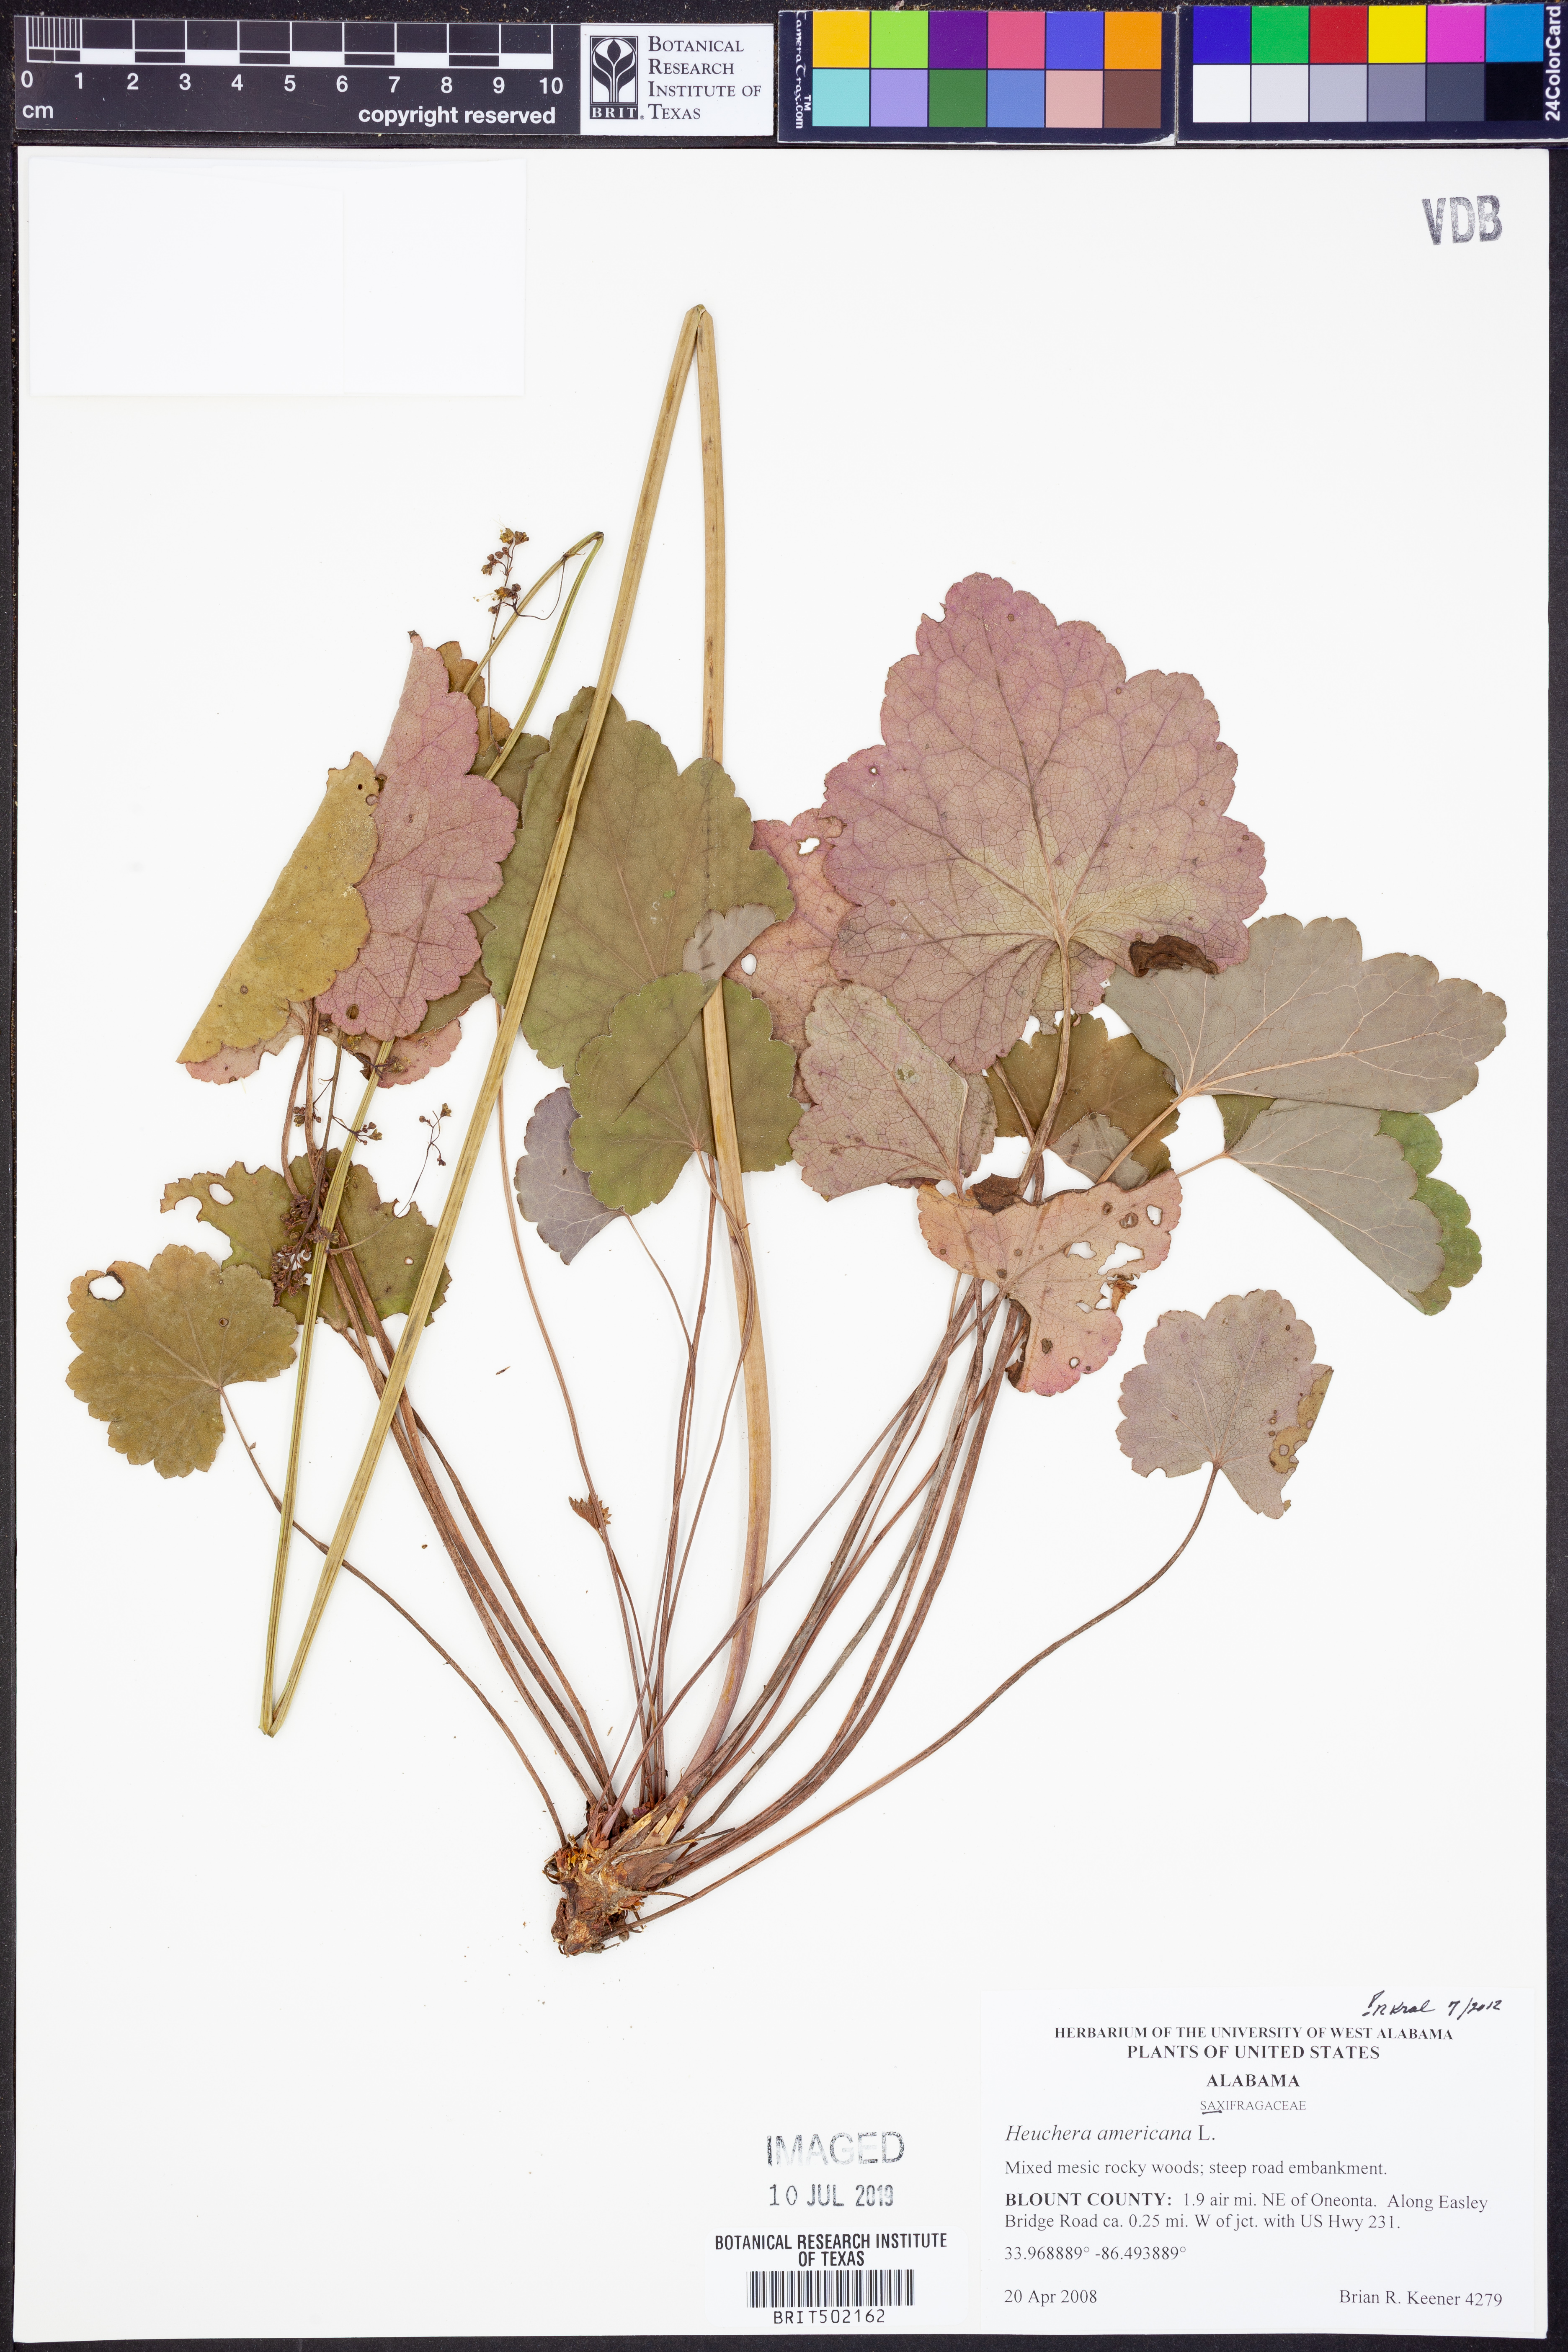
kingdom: Plantae
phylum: Tracheophyta
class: Magnoliopsida
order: Saxifragales
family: Saxifragaceae
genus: Heuchera
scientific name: Heuchera americana
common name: Alumroot
